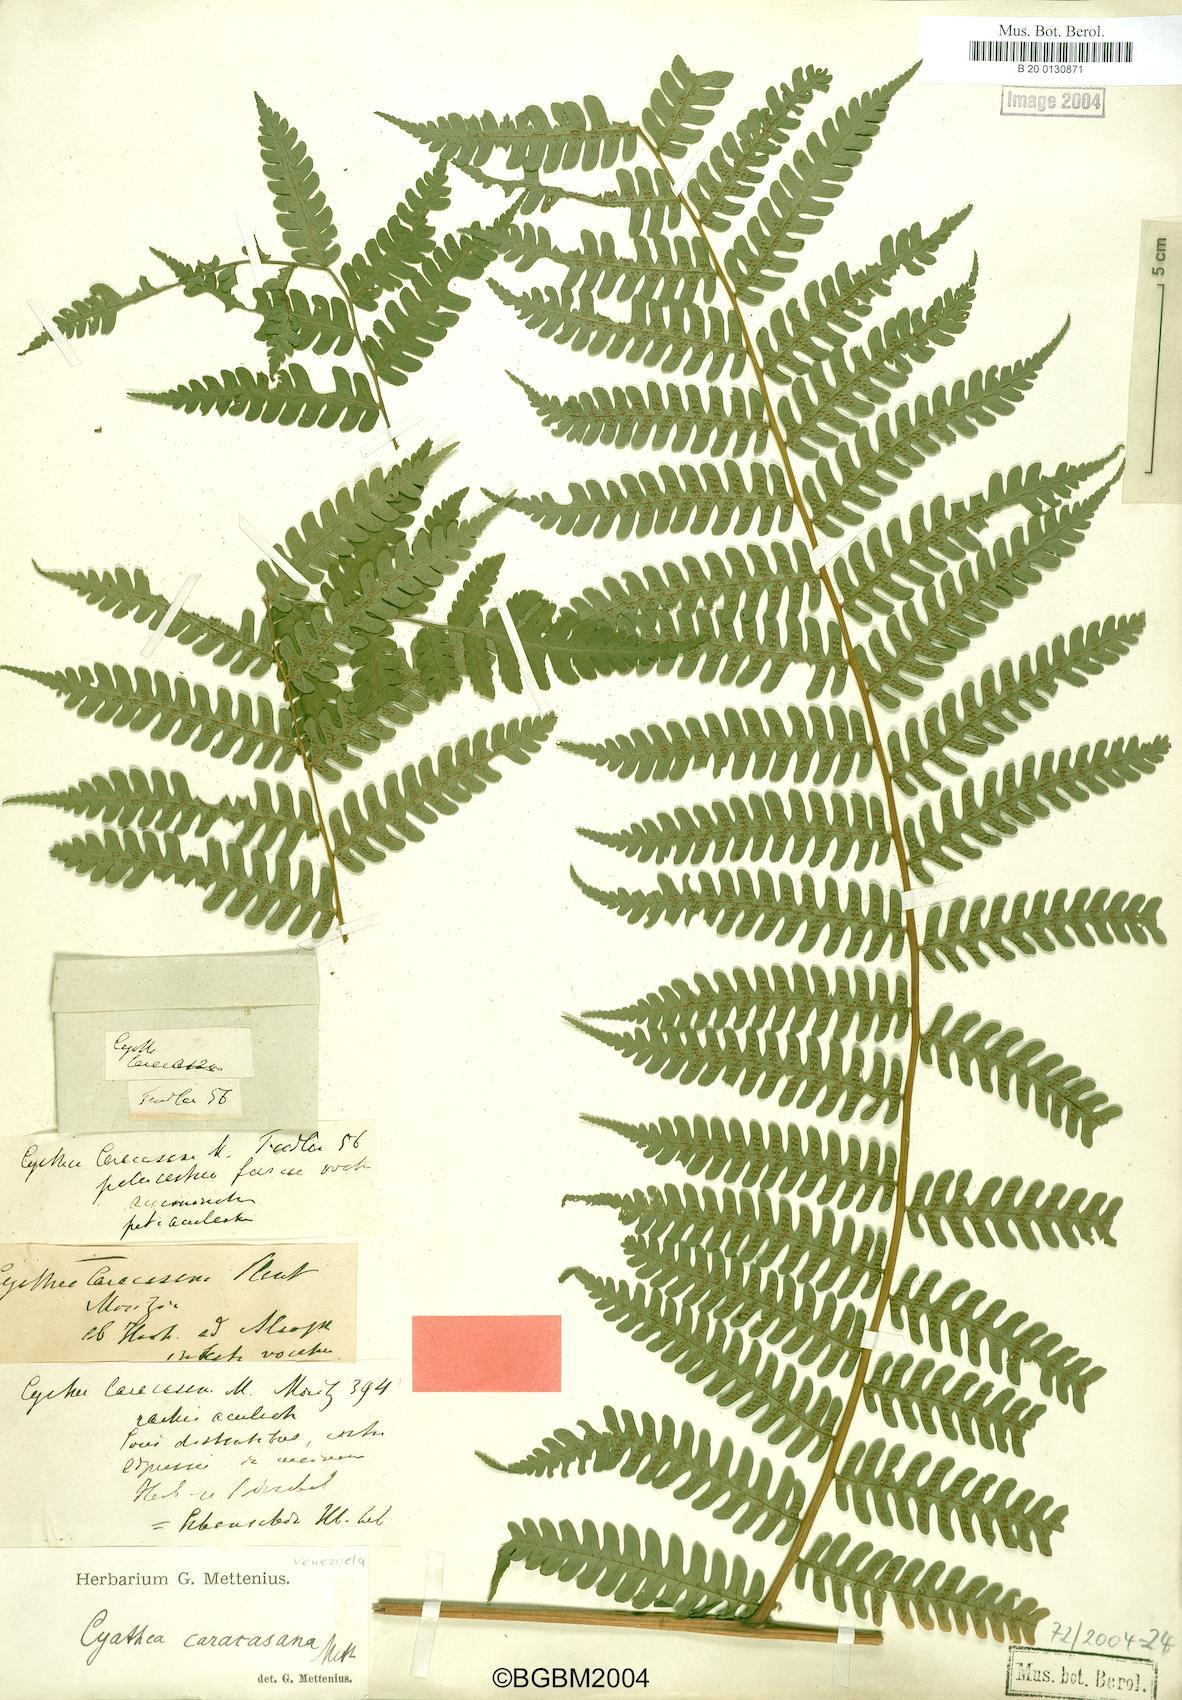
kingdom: Plantae
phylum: Tracheophyta
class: Polypodiopsida
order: Cyatheales
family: Cyatheaceae
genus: Cyathea
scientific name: Cyathea caracasana
